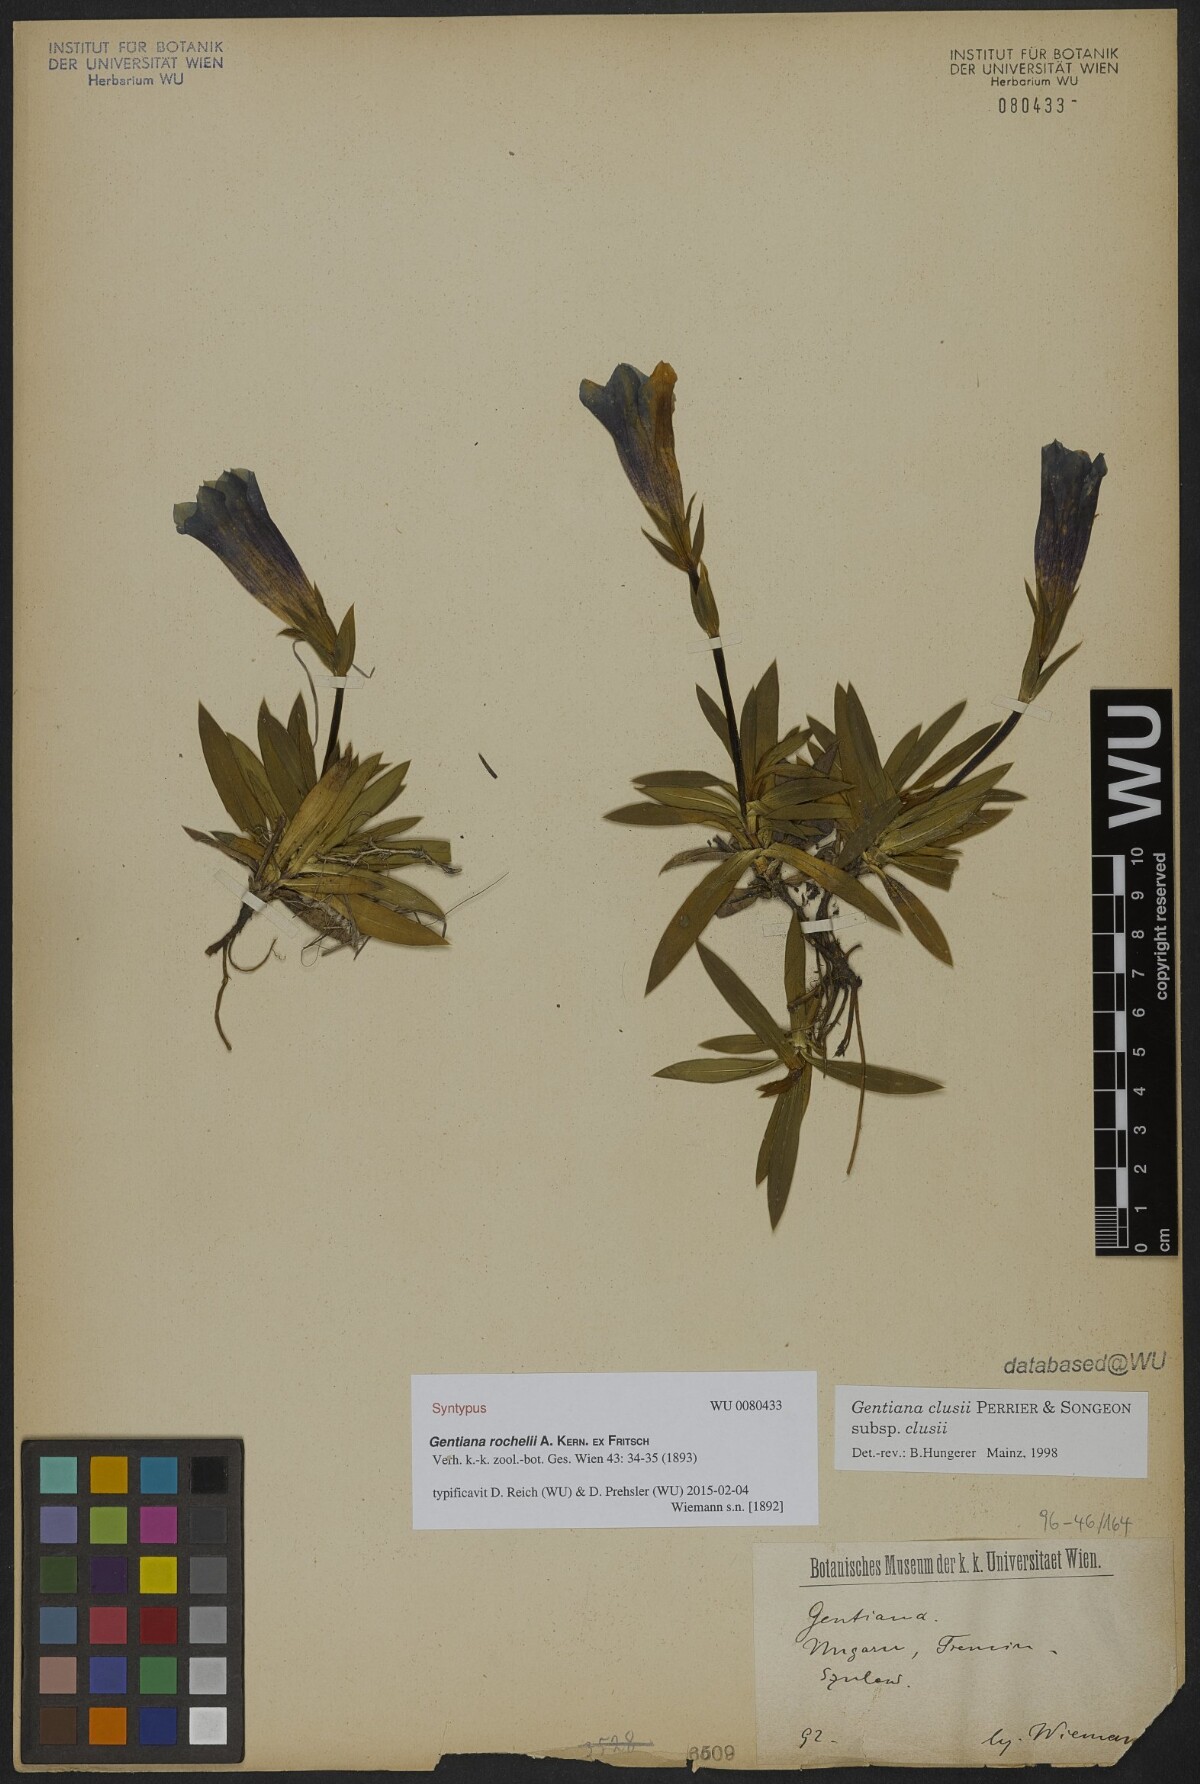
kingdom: Plantae
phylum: Tracheophyta
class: Magnoliopsida
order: Gentianales
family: Gentianaceae
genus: Gentiana
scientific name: Gentiana clusii
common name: Trumpet gentian
